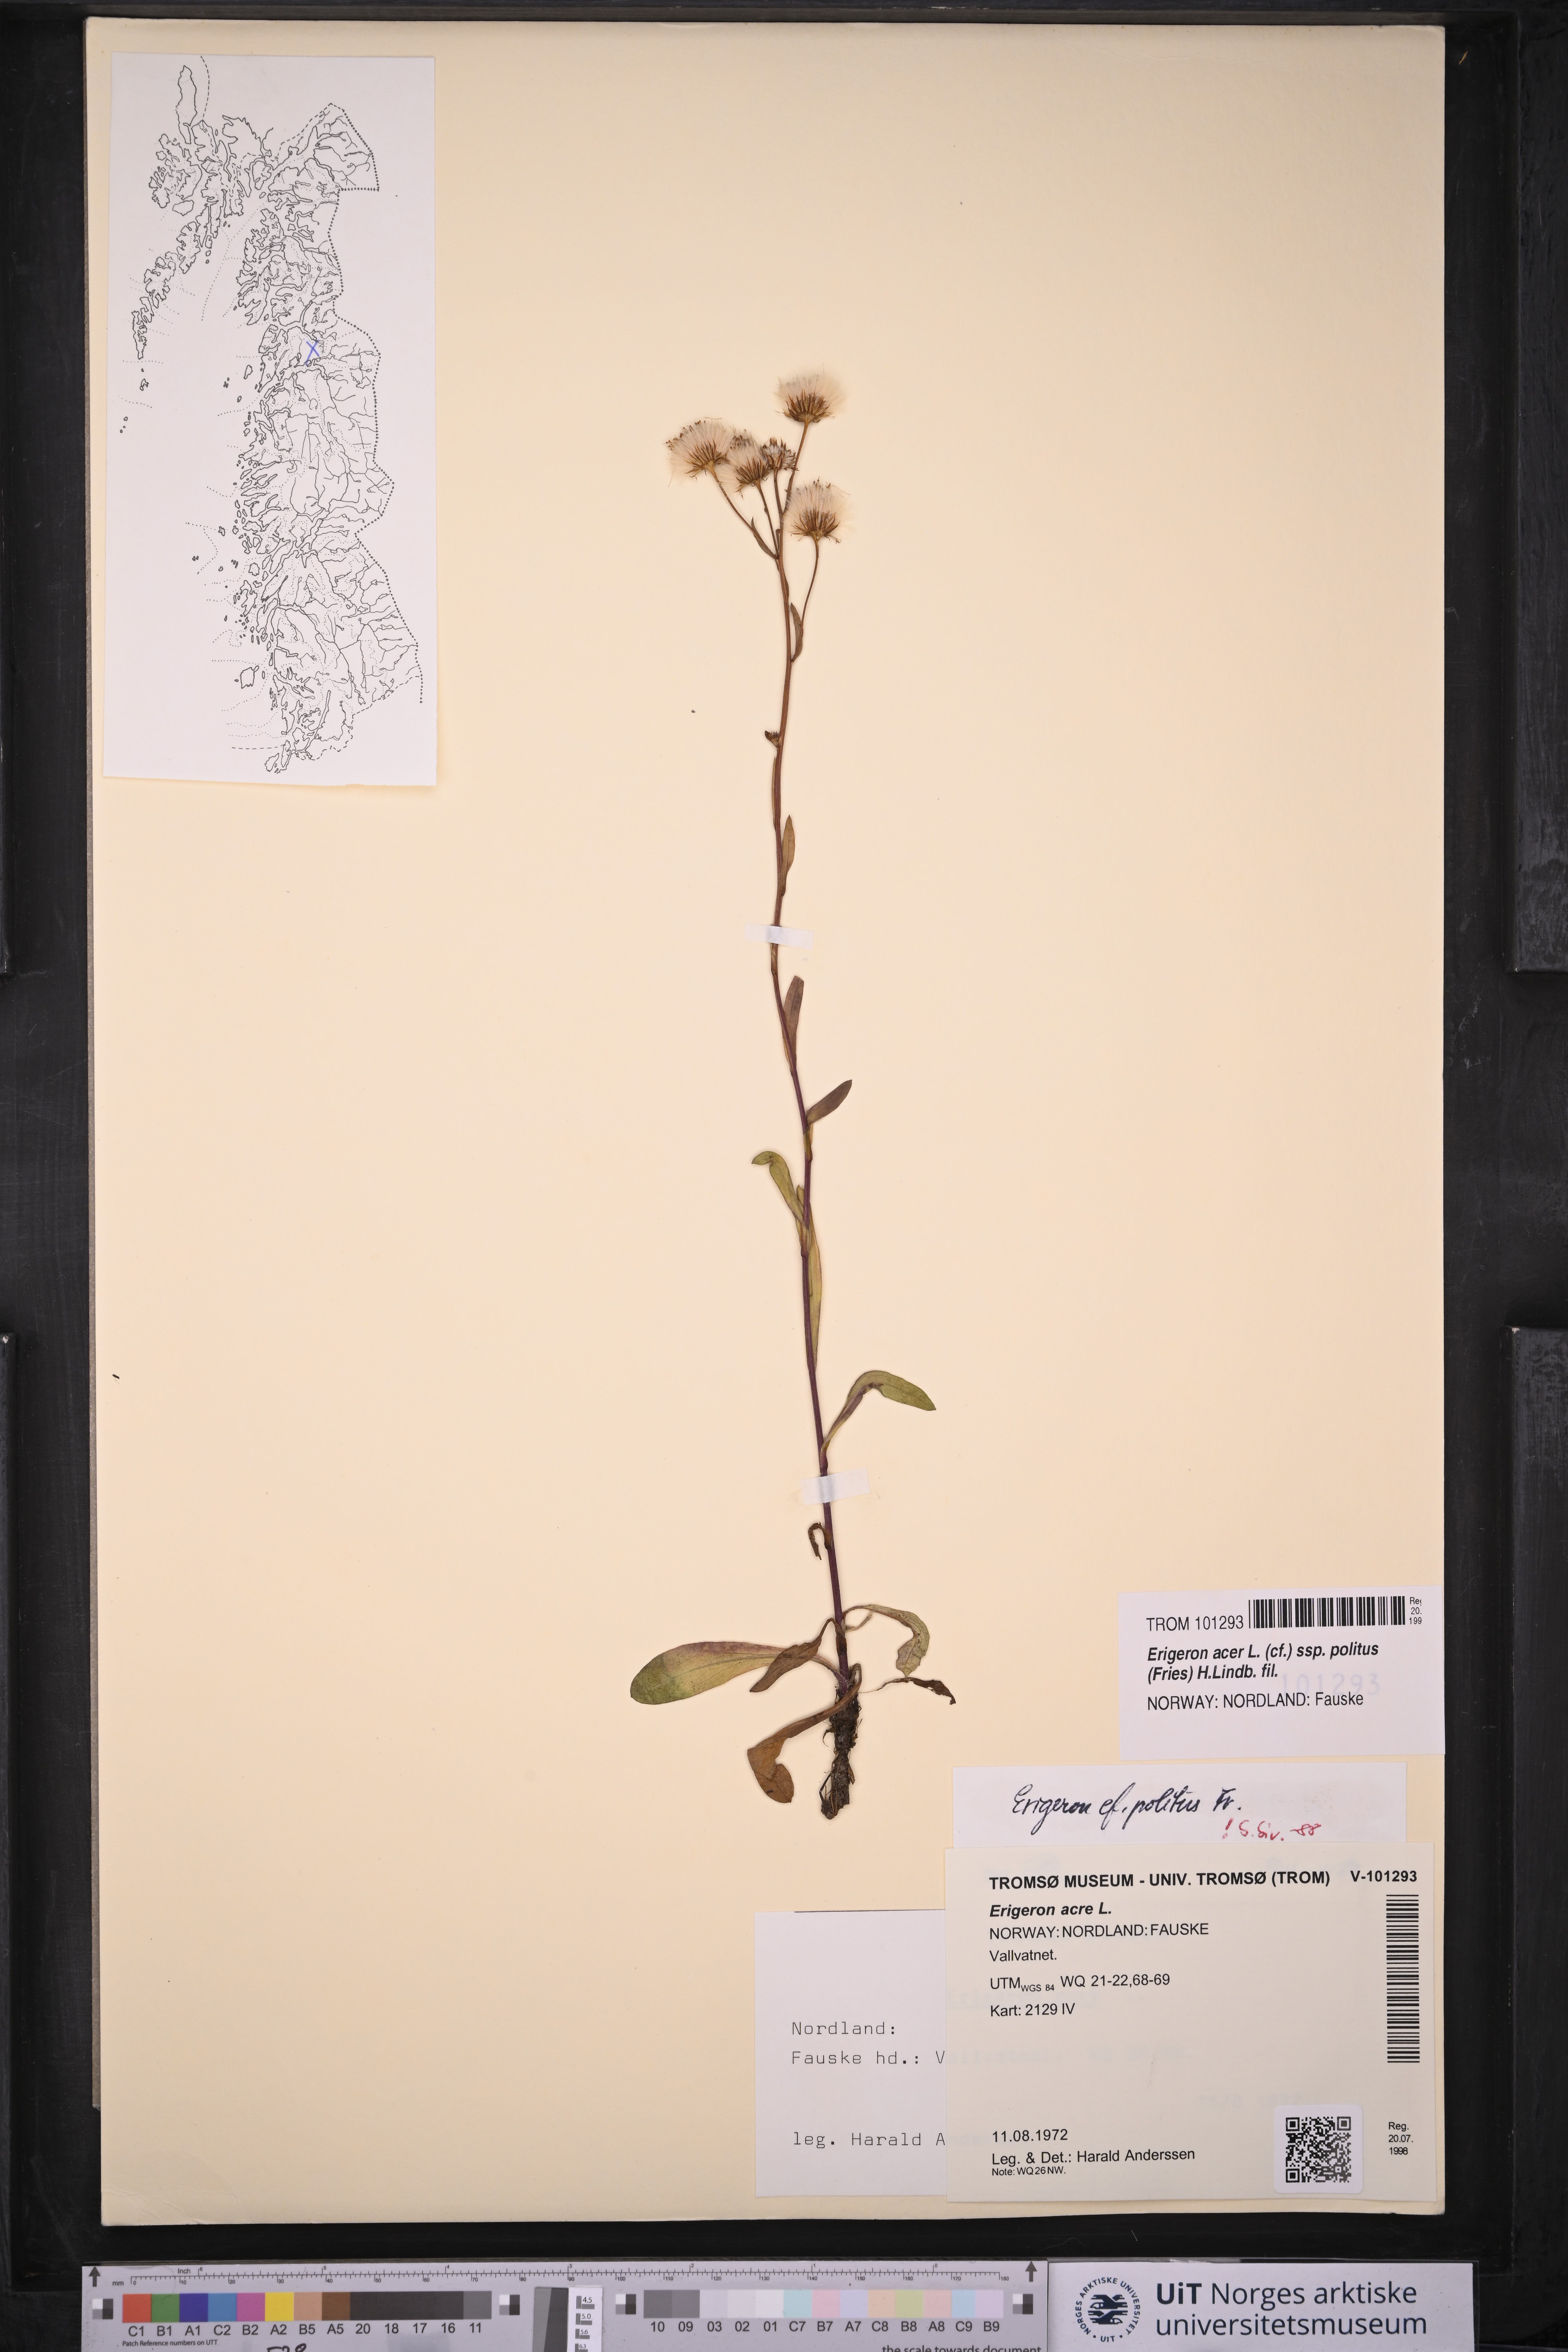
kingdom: Plantae
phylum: Tracheophyta
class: Magnoliopsida
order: Asterales
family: Asteraceae
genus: Erigeron
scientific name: Erigeron politus
